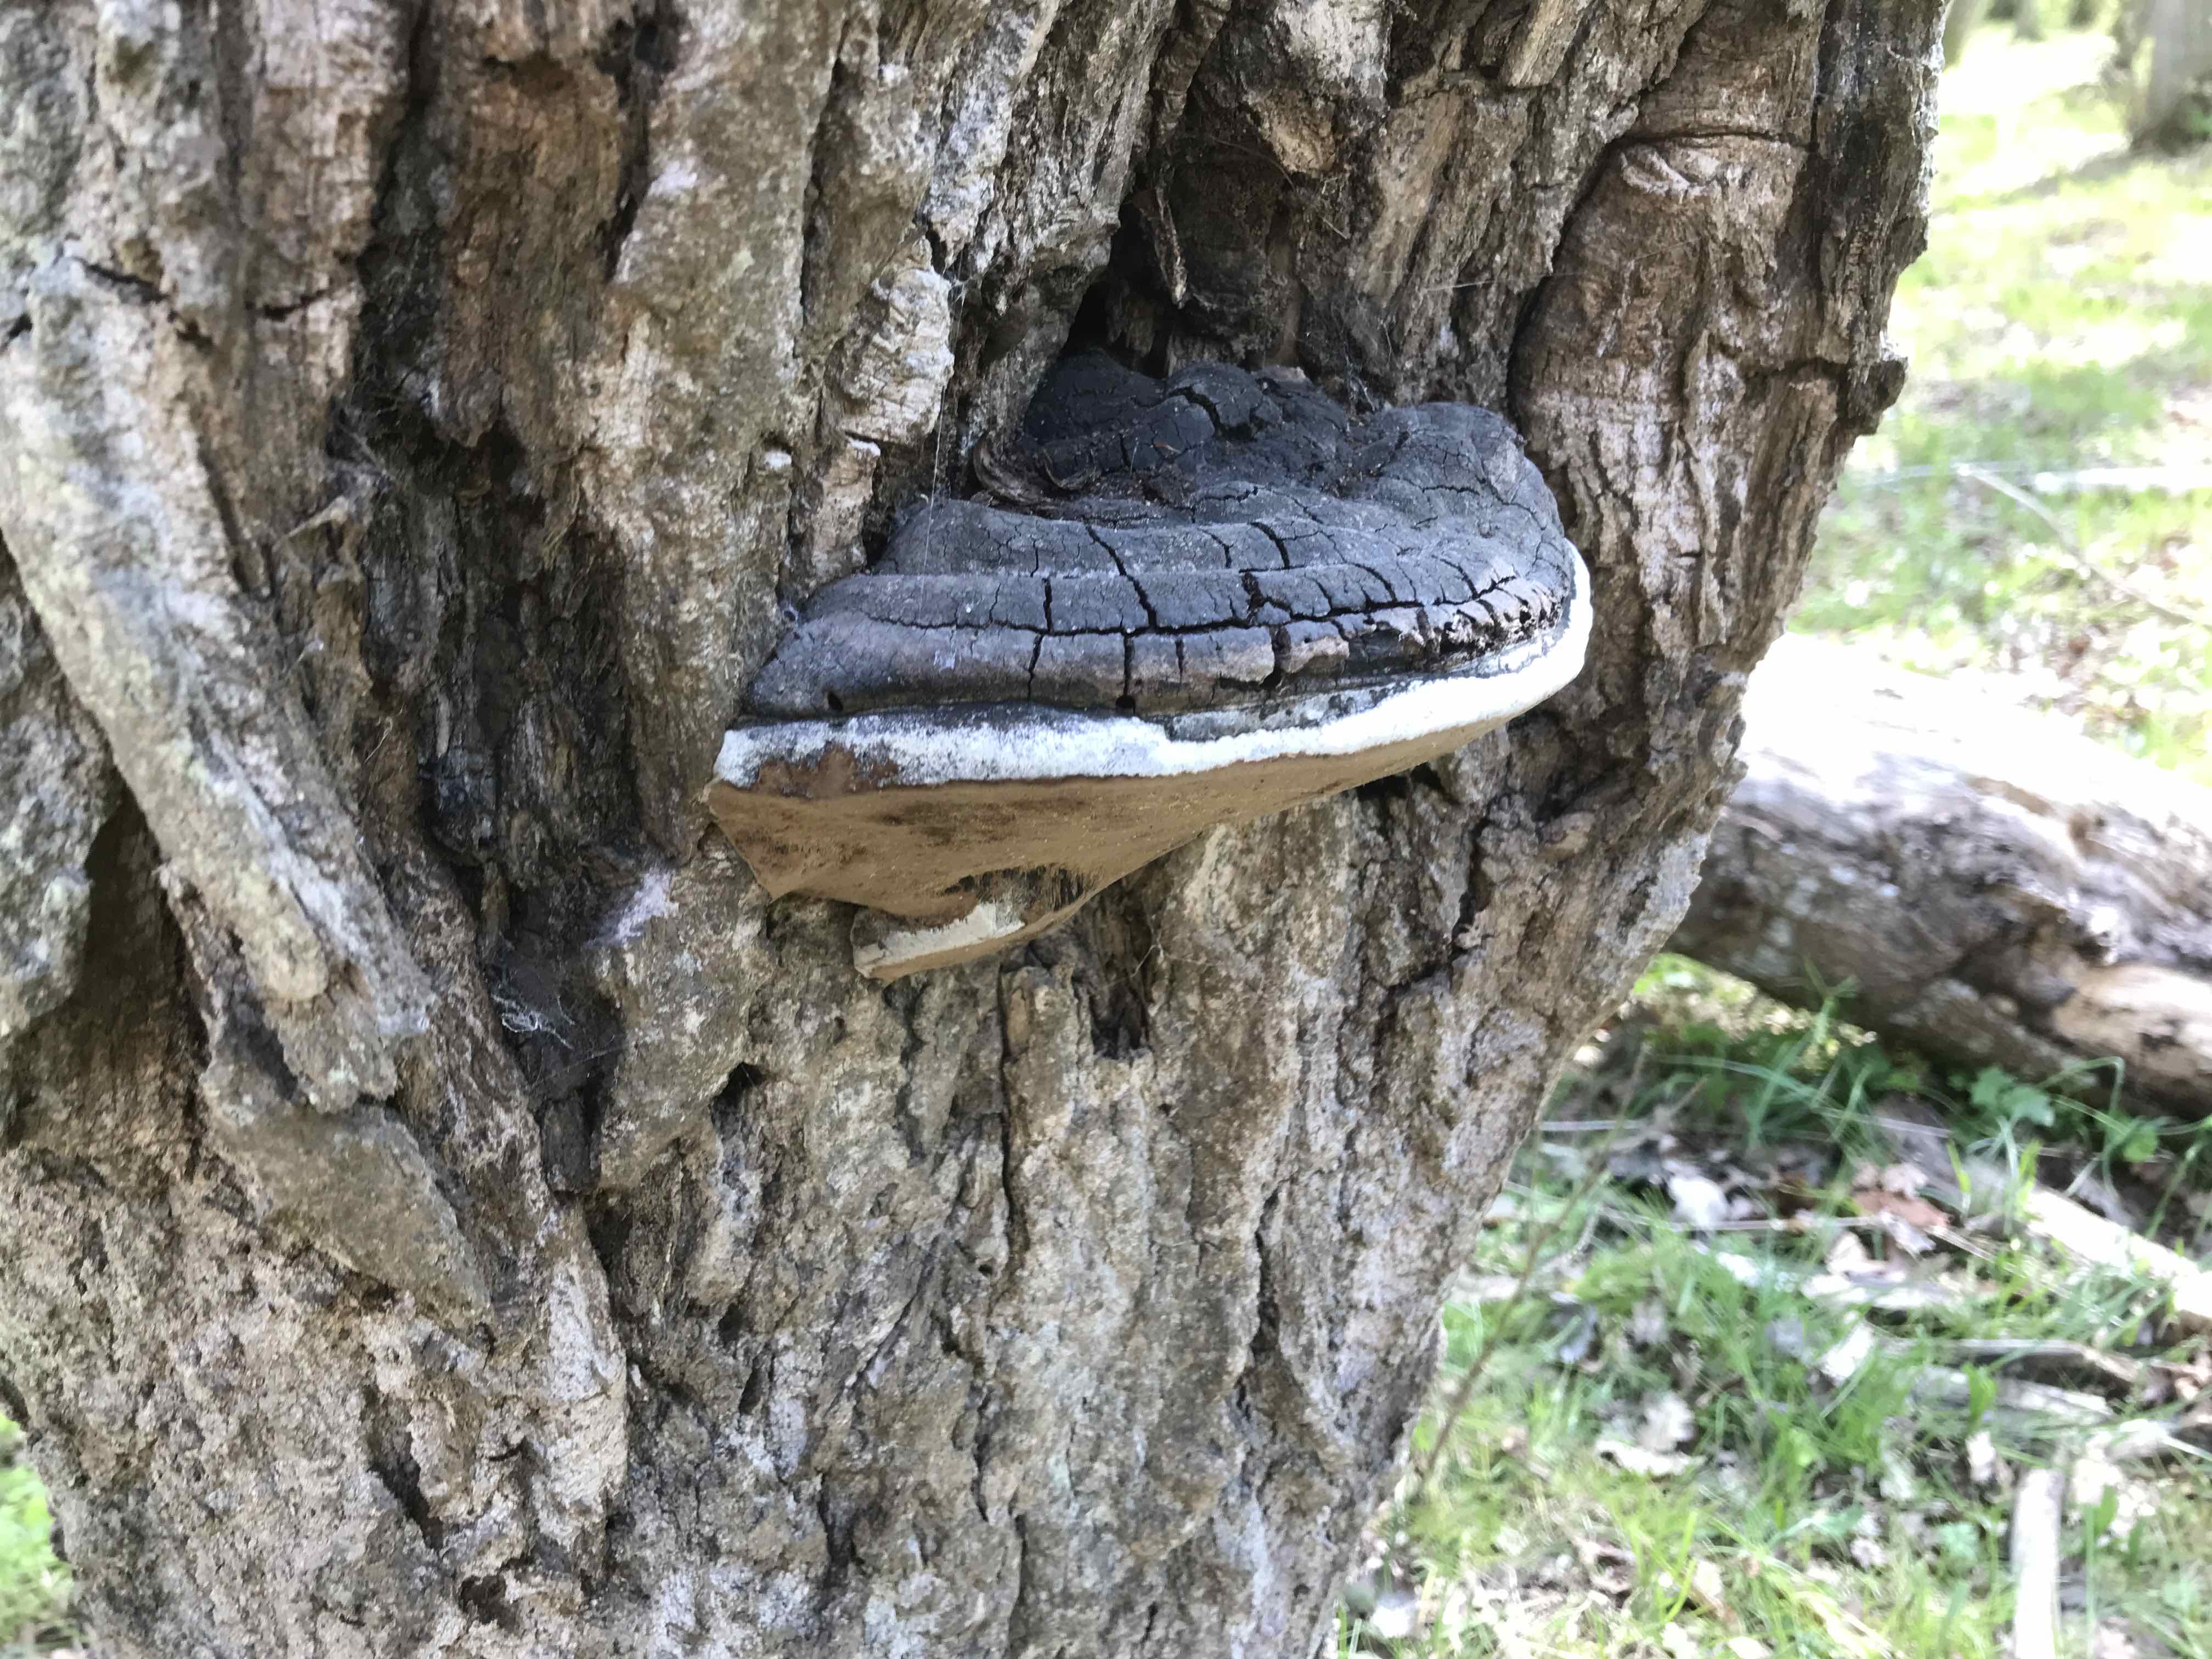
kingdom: Fungi
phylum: Basidiomycota
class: Agaricomycetes
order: Hymenochaetales
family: Hymenochaetaceae
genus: Phellinus
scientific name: Phellinus
